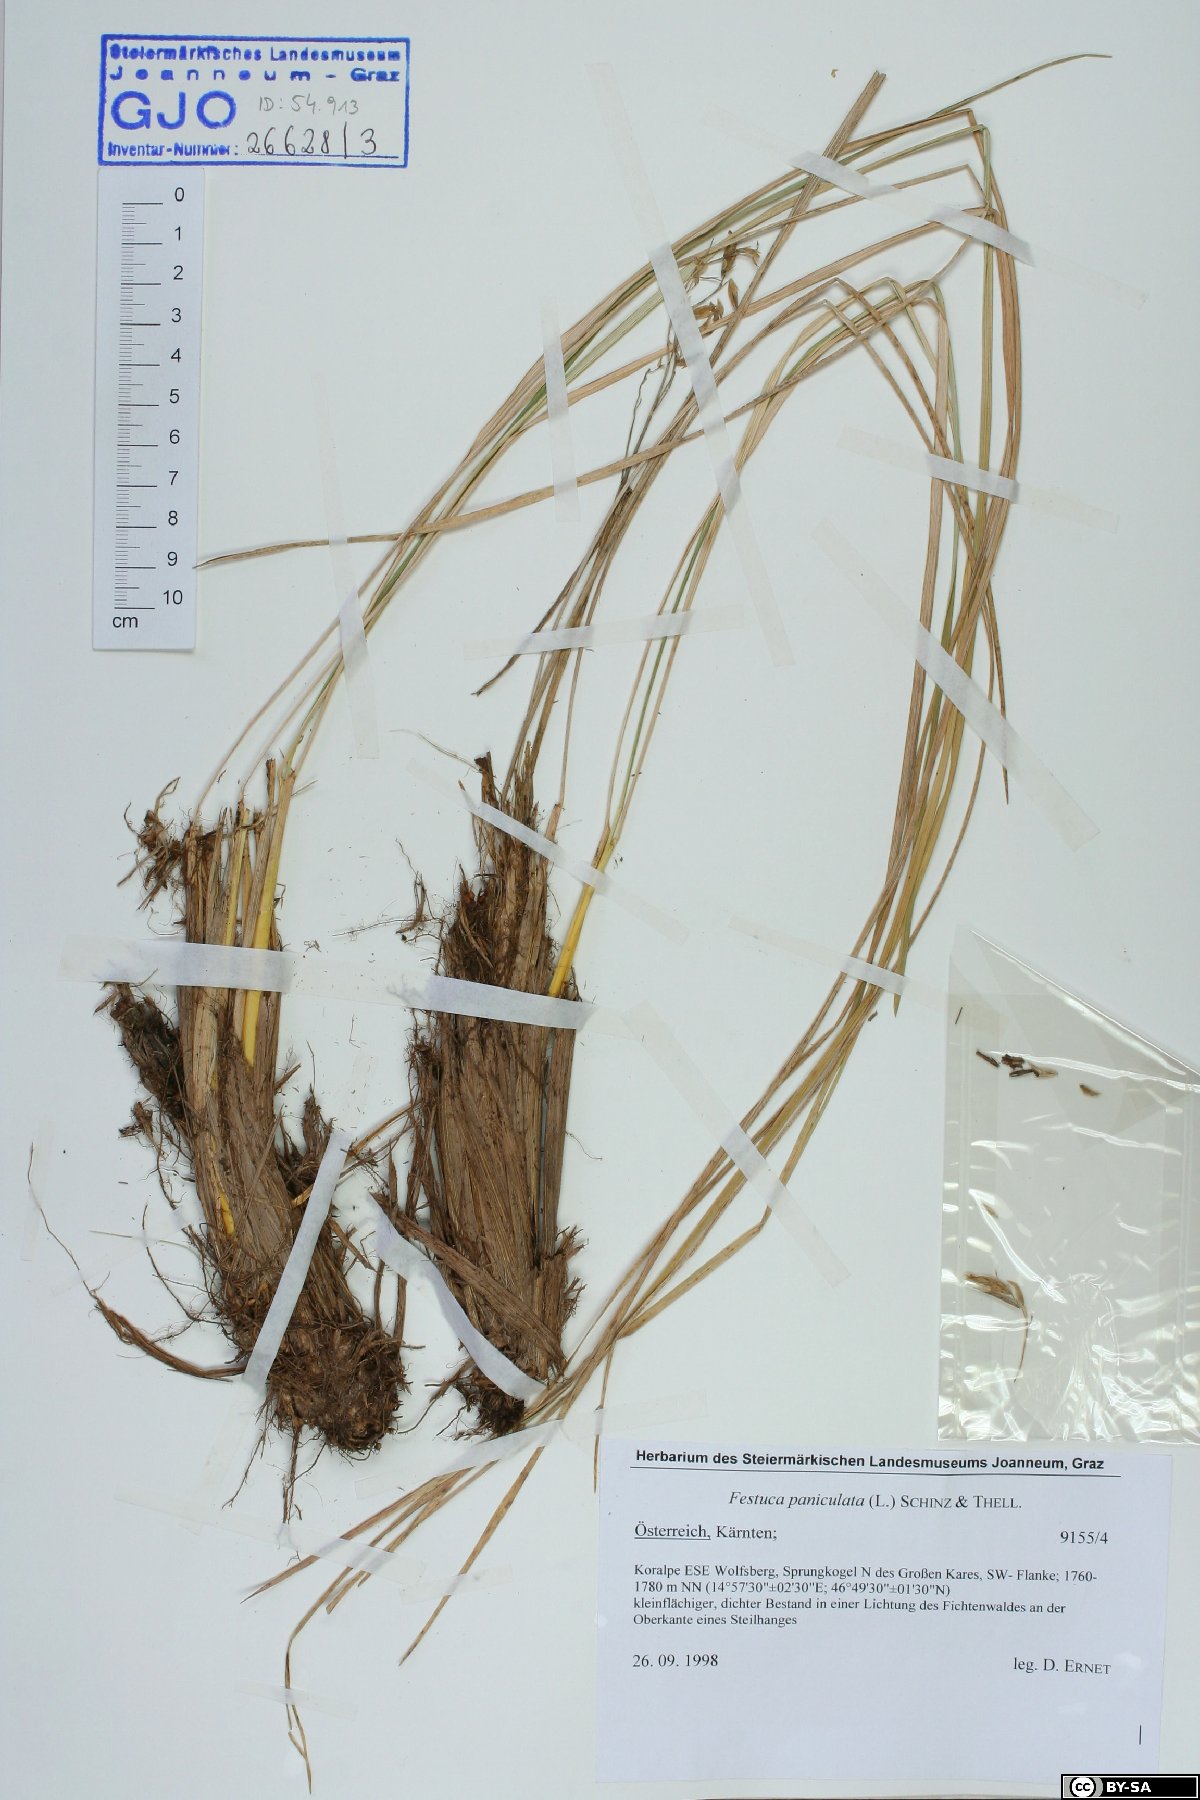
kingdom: Plantae
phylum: Tracheophyta
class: Liliopsida
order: Poales
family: Poaceae
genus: Patzkea
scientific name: Patzkea paniculata
